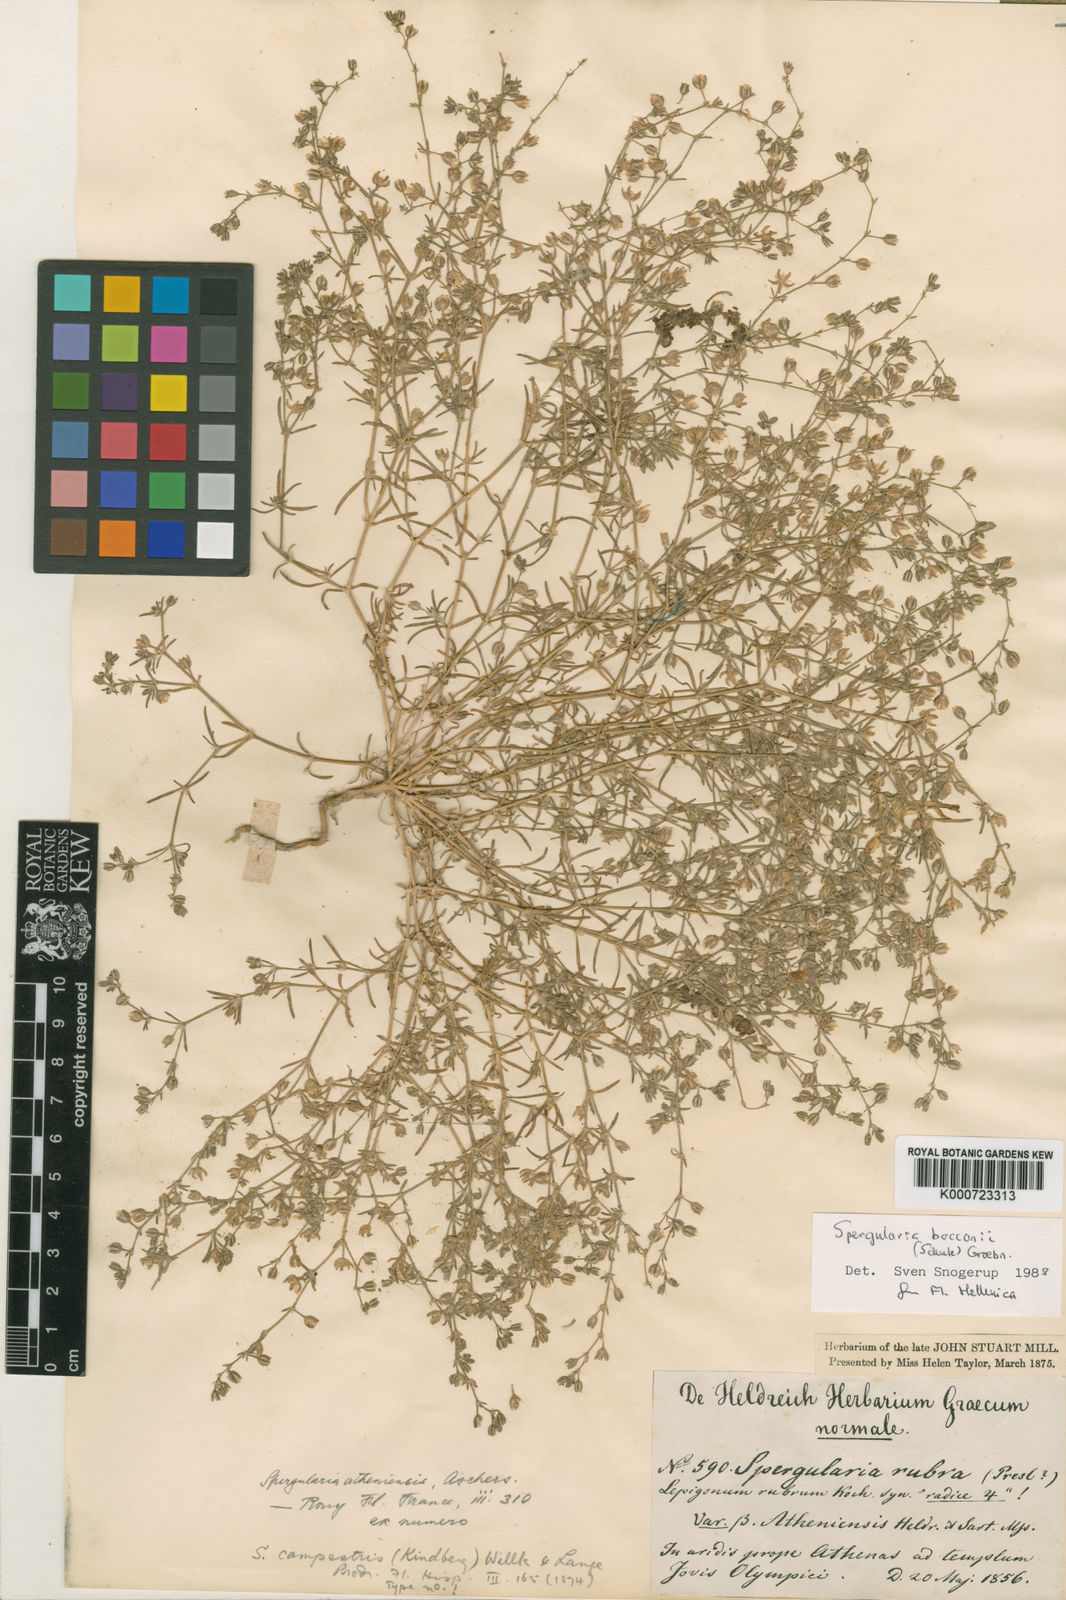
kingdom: Plantae
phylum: Tracheophyta
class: Magnoliopsida
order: Caryophyllales
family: Caryophyllaceae
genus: Spergularia
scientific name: Spergularia bocconei
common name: Greek sea-spurrey
